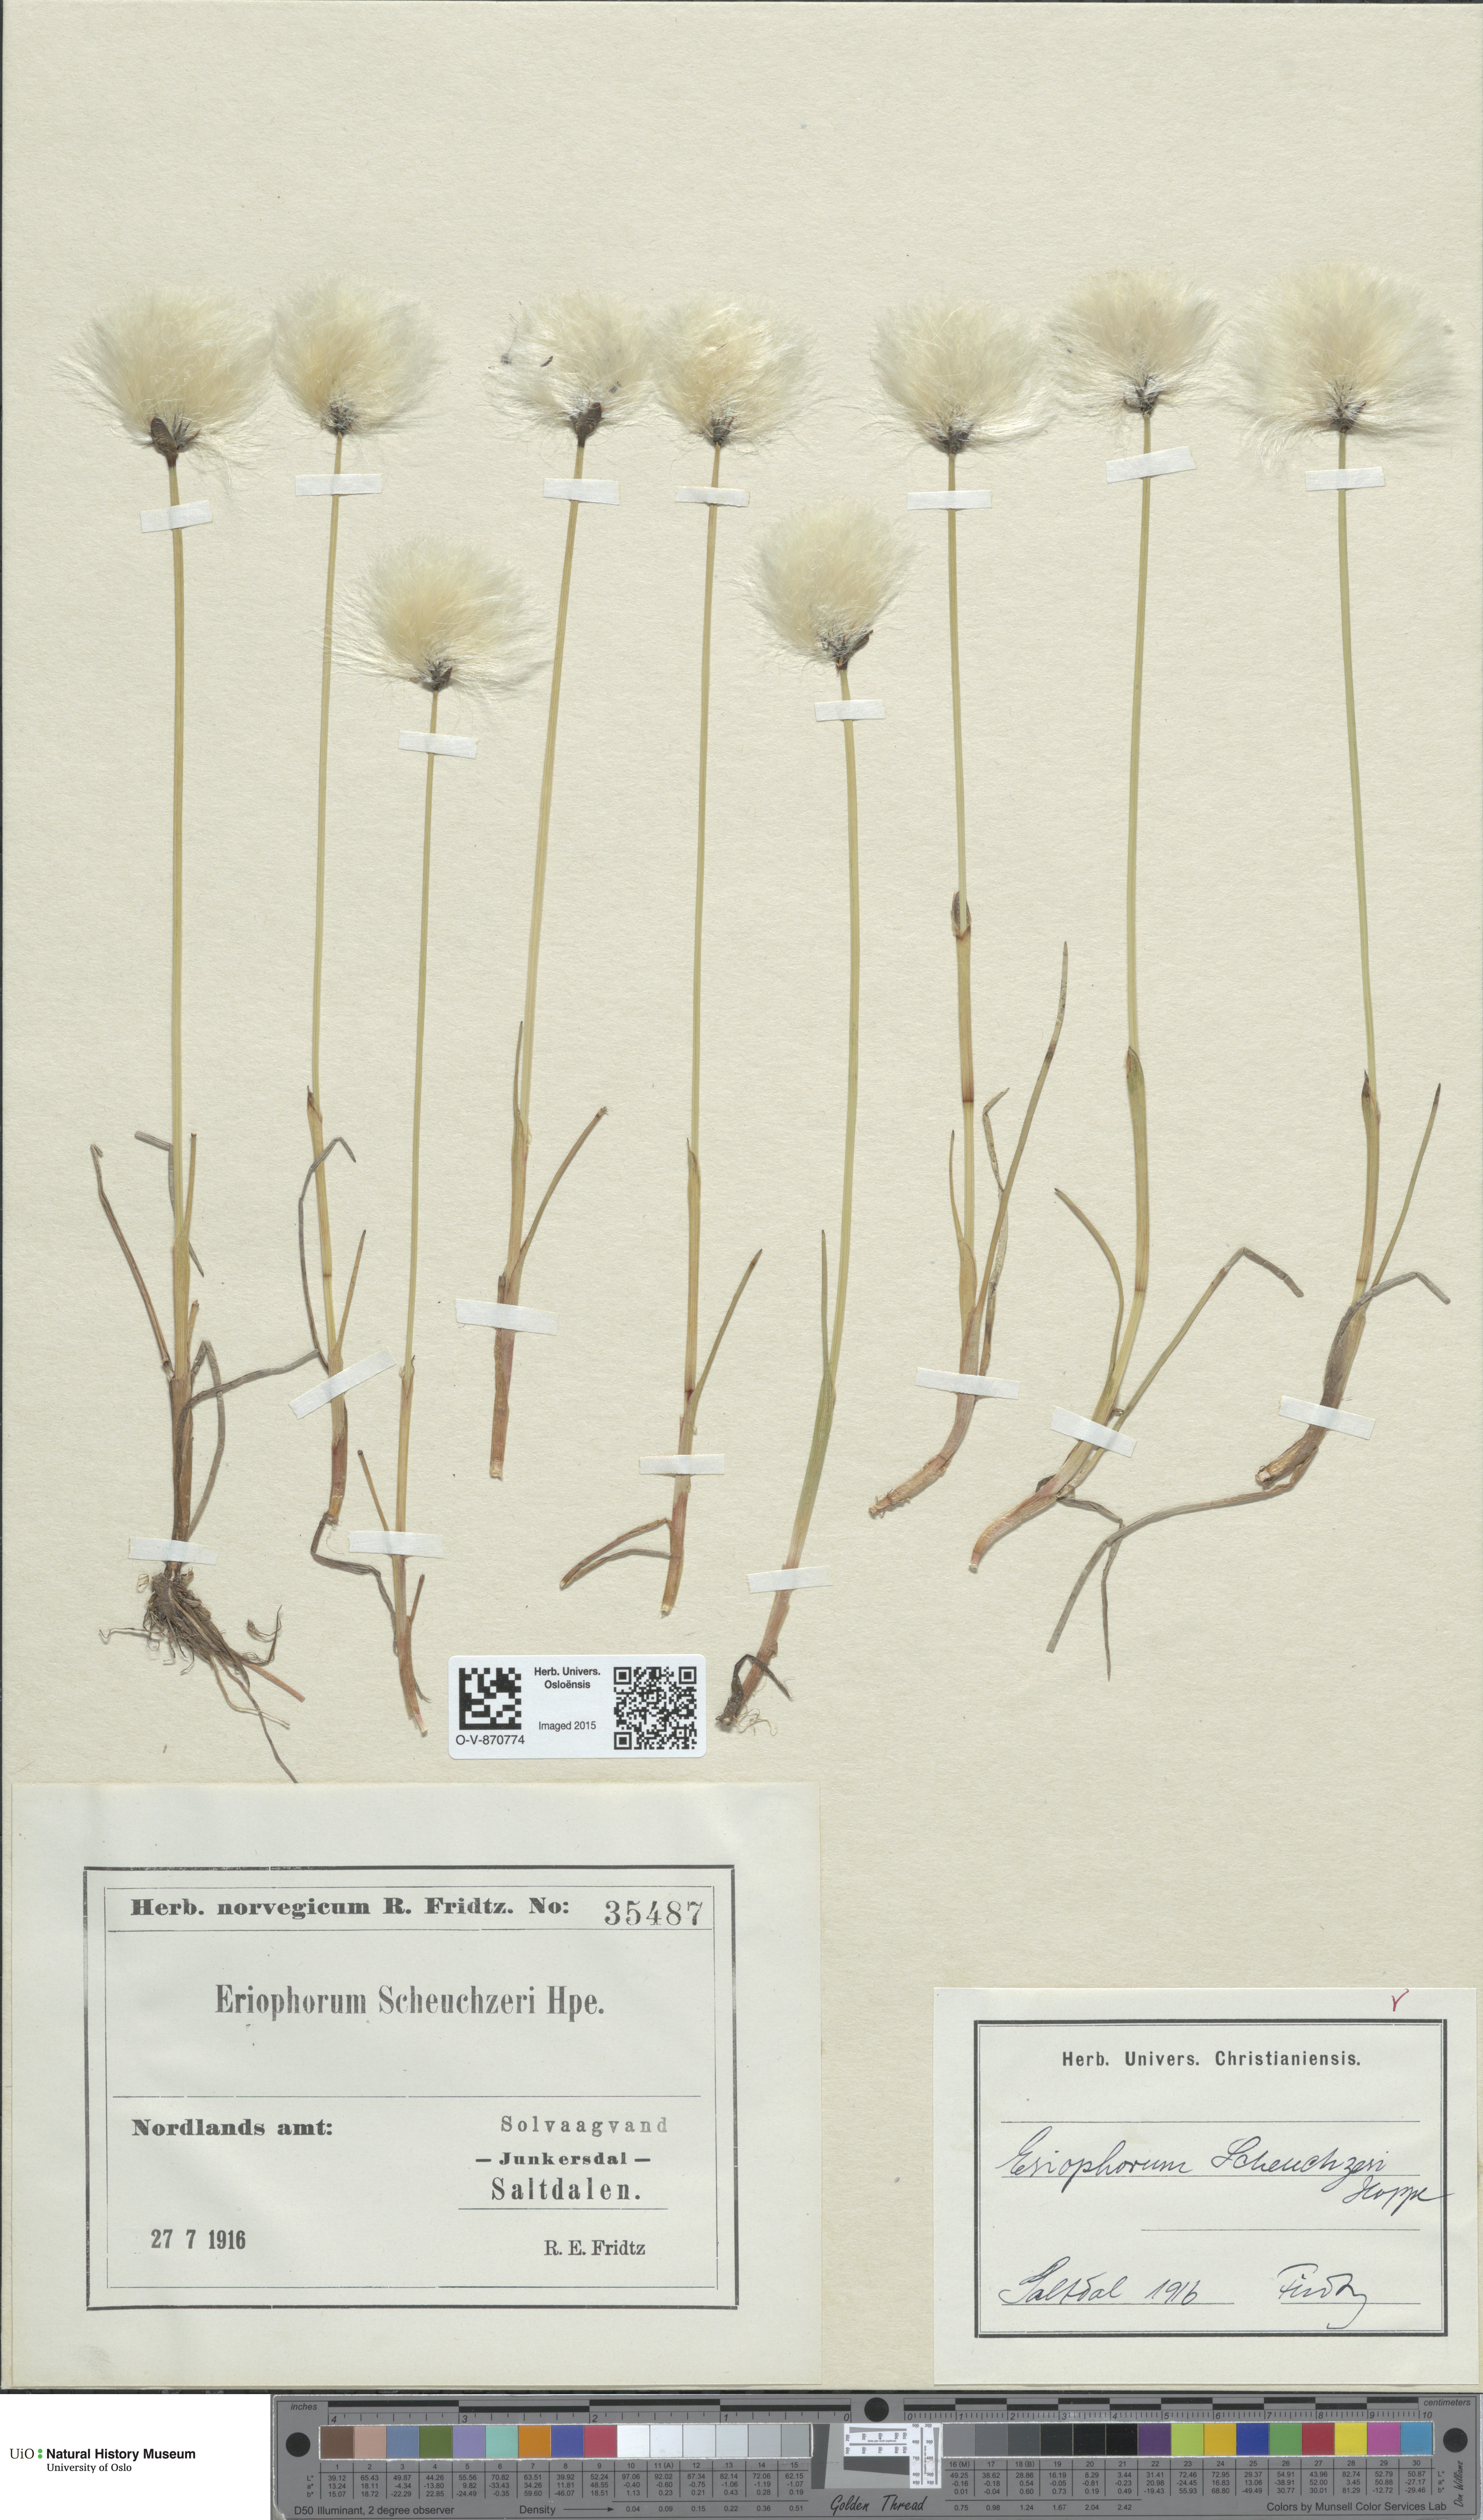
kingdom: Plantae
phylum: Tracheophyta
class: Liliopsida
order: Poales
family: Cyperaceae
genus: Eriophorum
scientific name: Eriophorum scheuchzeri
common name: Scheuchzer's cottongrass
